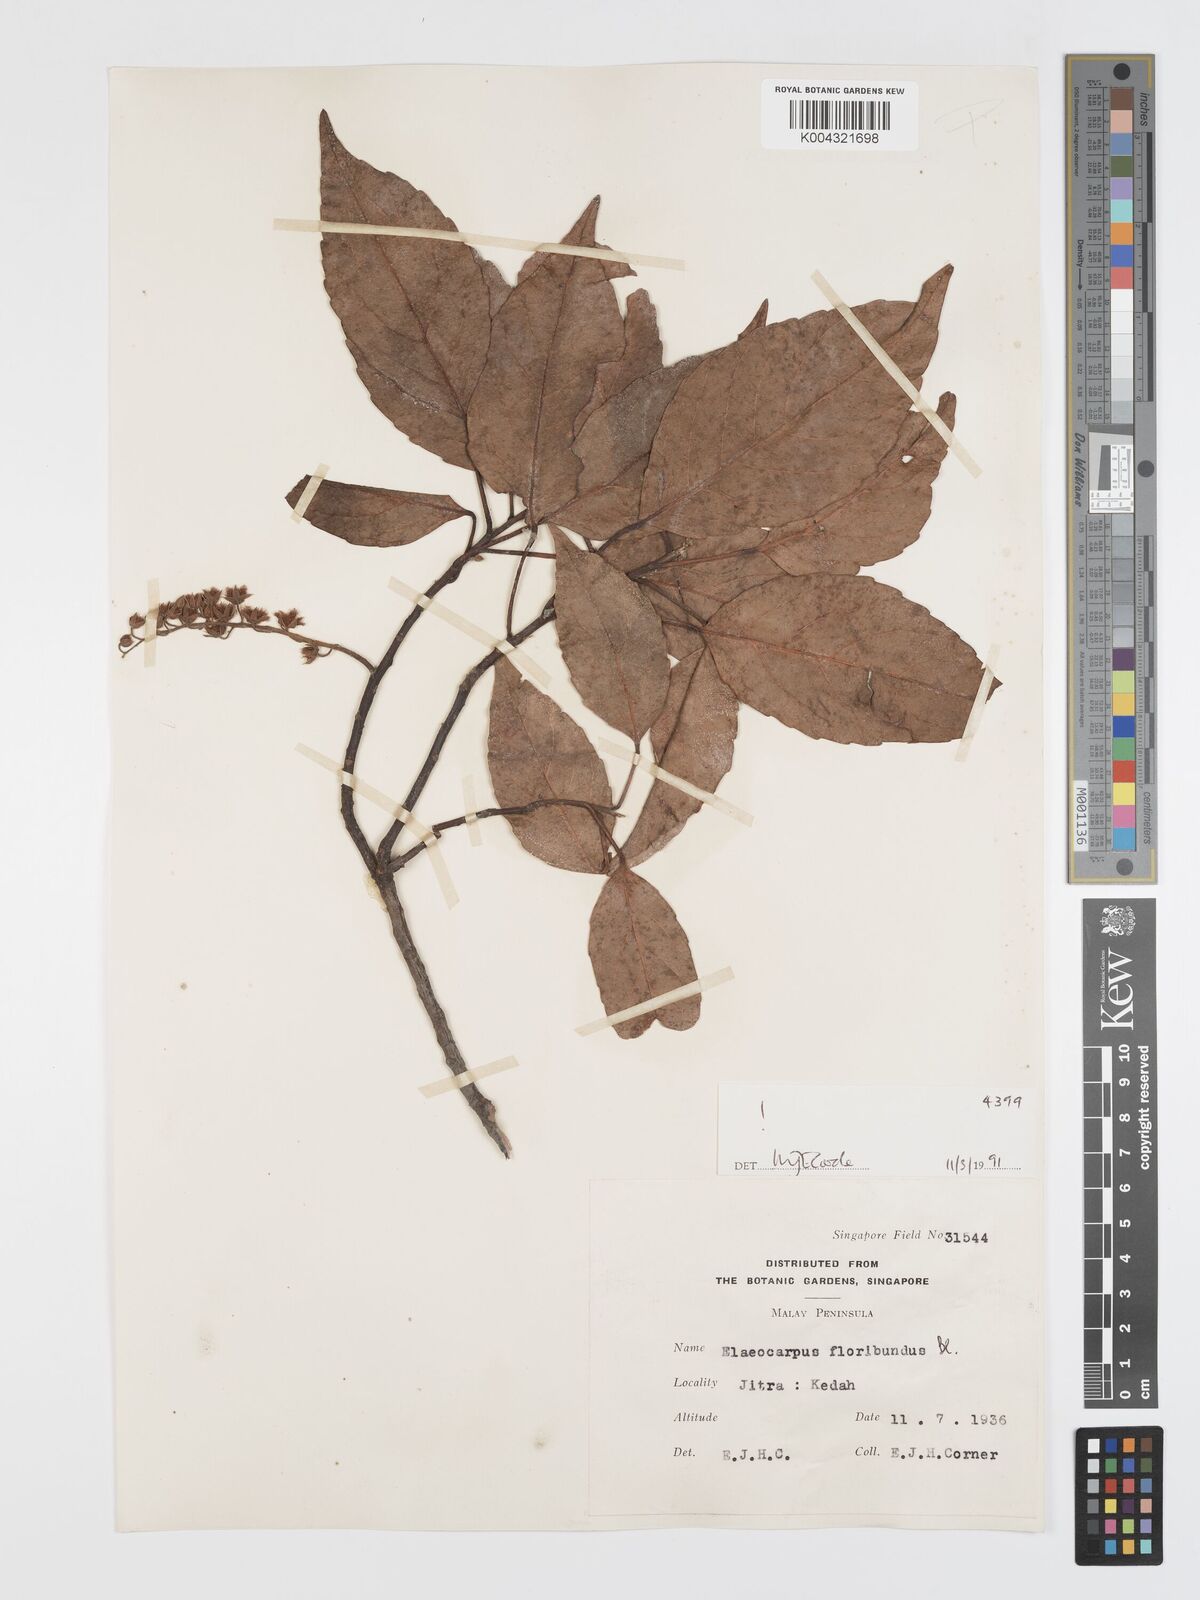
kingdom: Plantae
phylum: Tracheophyta
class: Magnoliopsida
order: Oxalidales
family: Elaeocarpaceae
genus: Elaeocarpus
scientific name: Elaeocarpus floribundus
